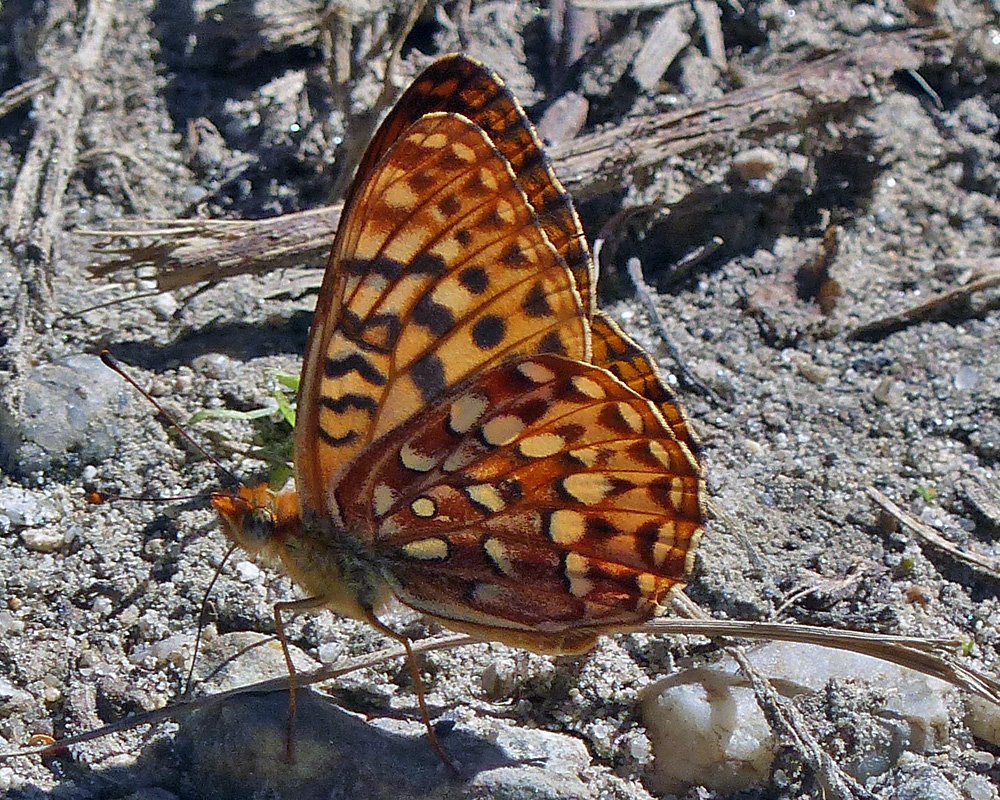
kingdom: Animalia
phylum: Arthropoda
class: Insecta
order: Lepidoptera
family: Nymphalidae
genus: Speyeria
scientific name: Speyeria hydaspe
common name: Hydaspe Fritillary
